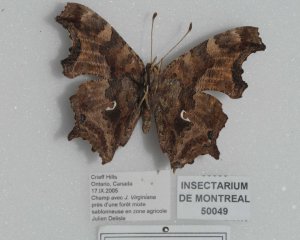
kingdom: Animalia
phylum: Arthropoda
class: Insecta
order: Lepidoptera
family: Nymphalidae
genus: Polygonia
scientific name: Polygonia comma
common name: Eastern Comma
